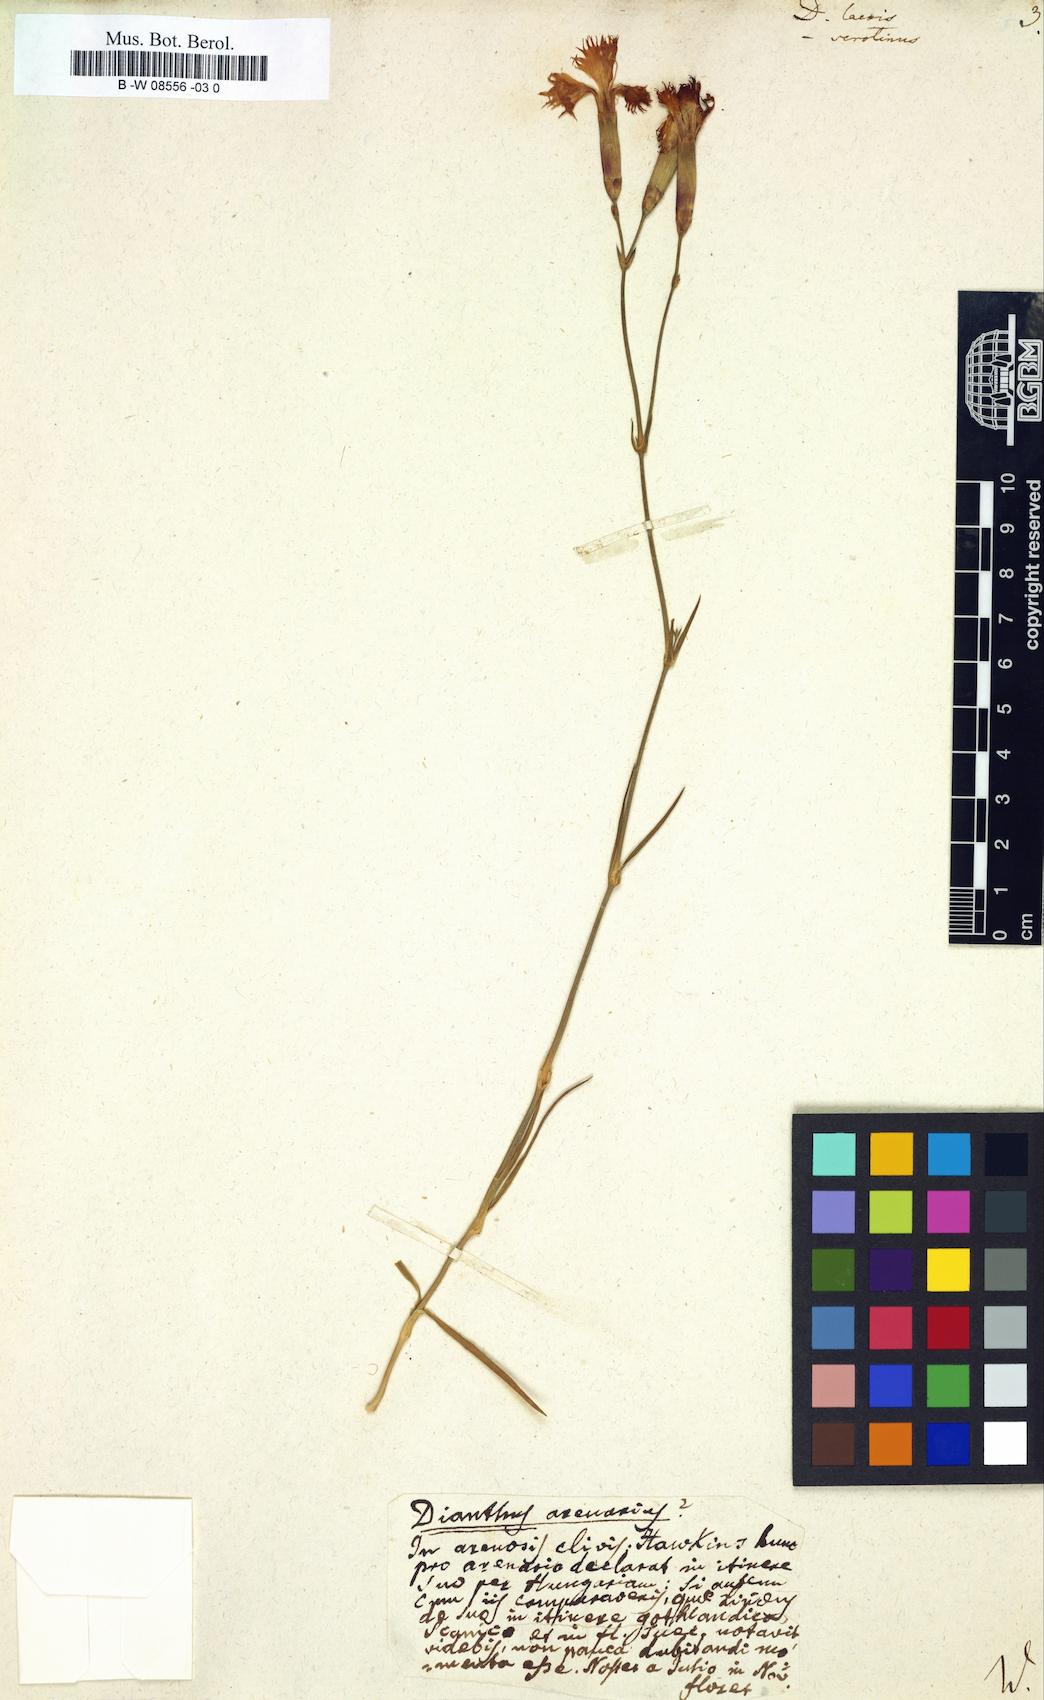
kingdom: Plantae
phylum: Tracheophyta
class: Magnoliopsida
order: Caryophyllales
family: Caryophyllaceae
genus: Dianthus
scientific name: Dianthus
